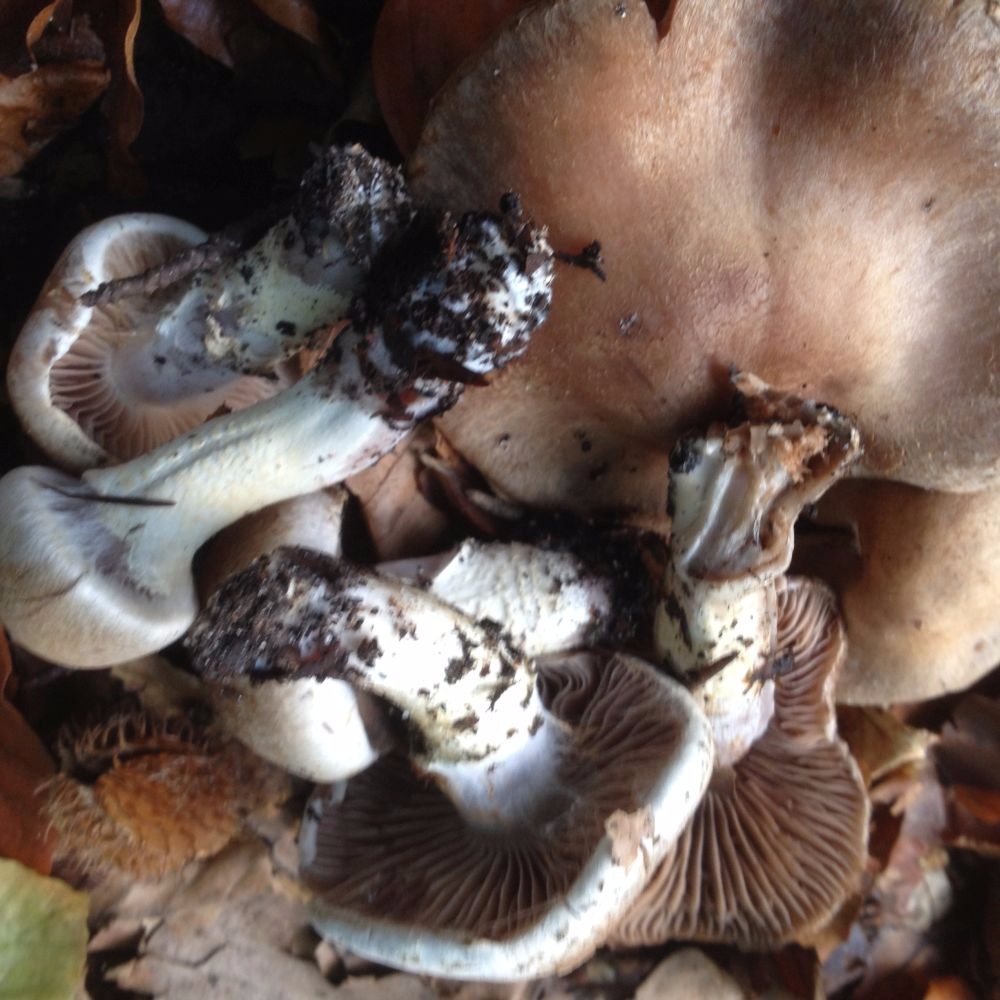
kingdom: Fungi
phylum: Basidiomycota
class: Agaricomycetes
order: Agaricales
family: Cortinariaceae
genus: Cortinarius
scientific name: Cortinarius torvus
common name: champignonagtig slørhat
